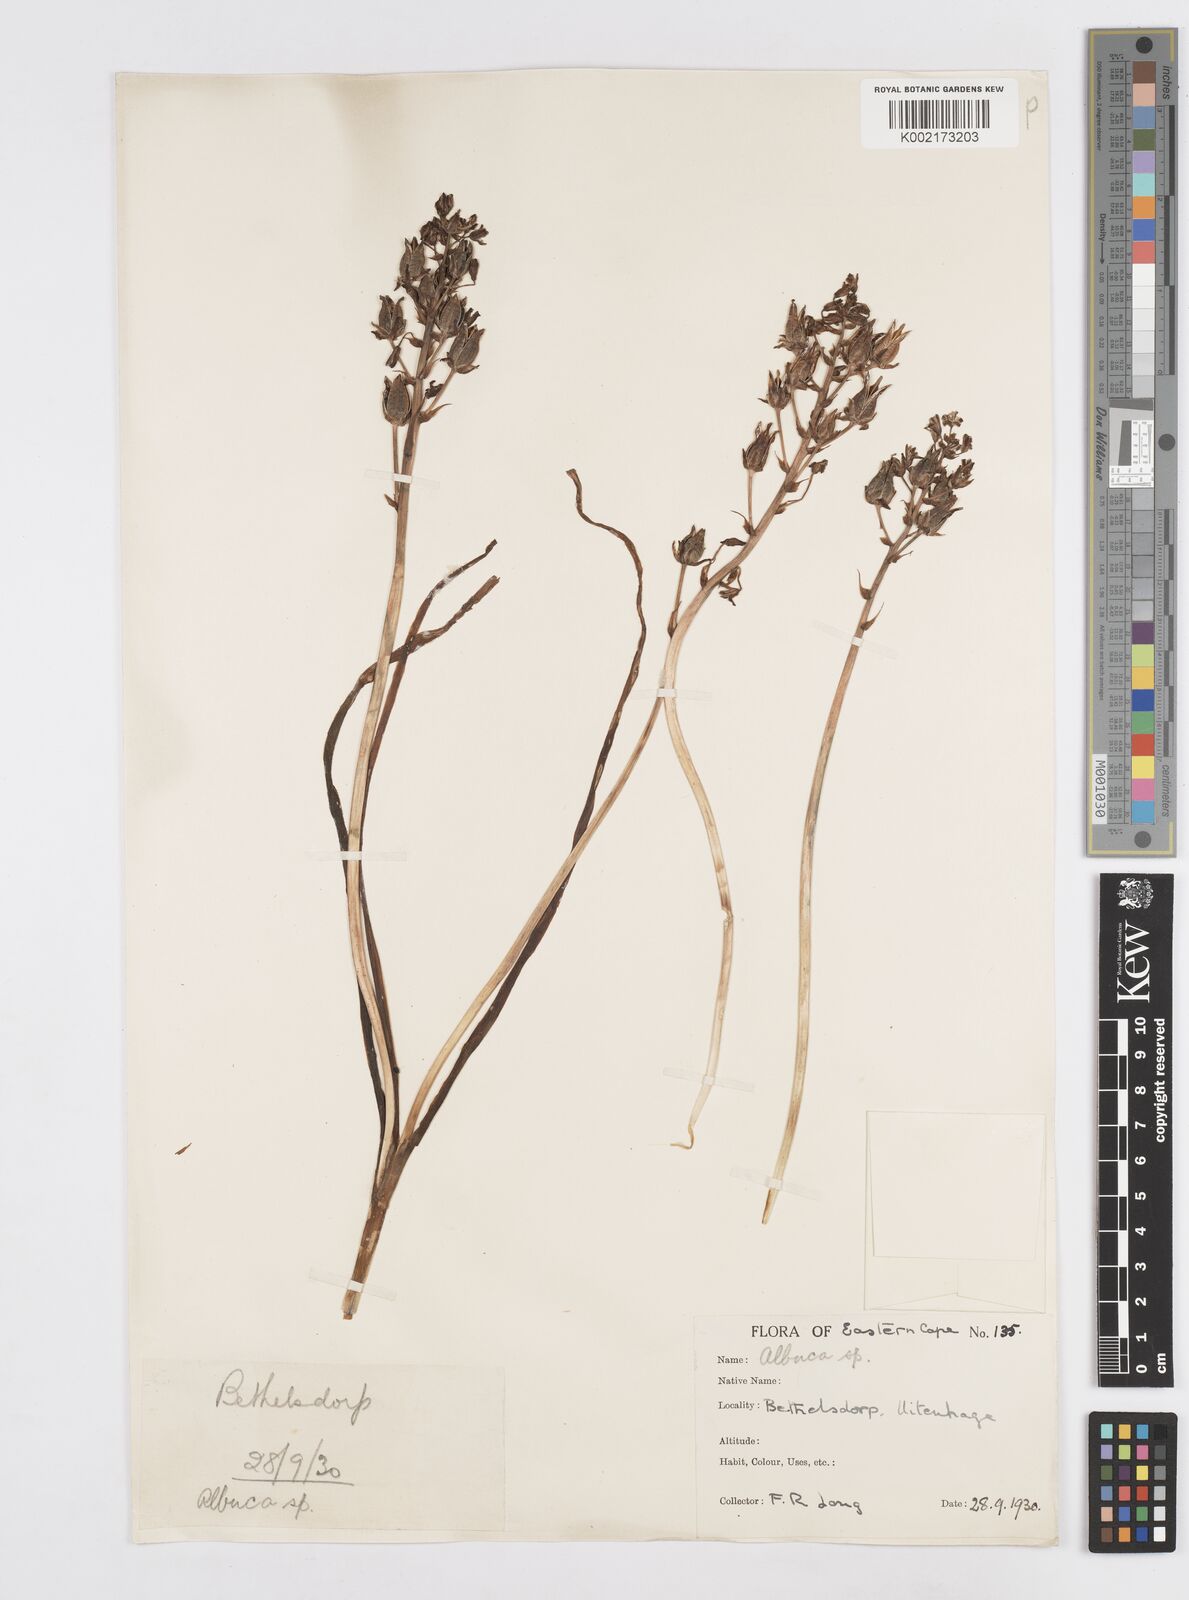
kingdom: Plantae
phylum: Tracheophyta
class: Liliopsida
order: Asparagales
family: Asparagaceae
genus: Albuca
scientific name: Albuca
